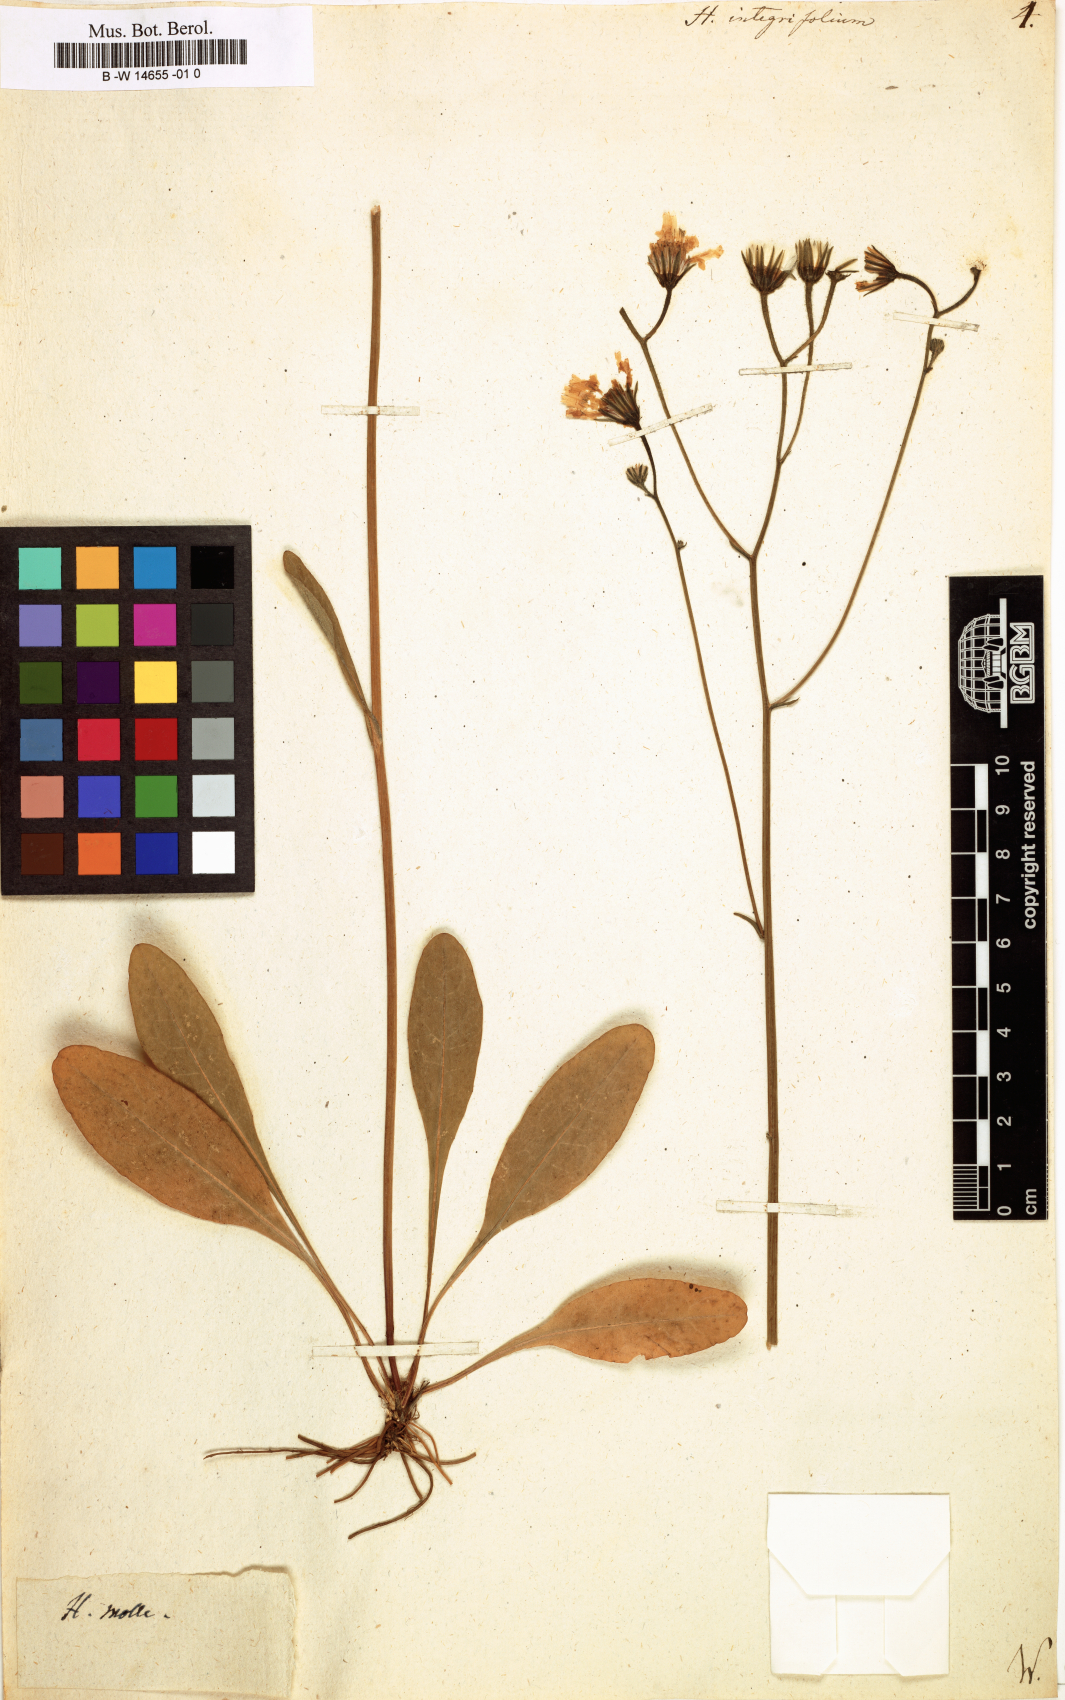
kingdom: Plantae
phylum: Tracheophyta
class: Magnoliopsida
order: Asterales
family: Asteraceae
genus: Hieracium
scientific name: Hieracium integrifolium
